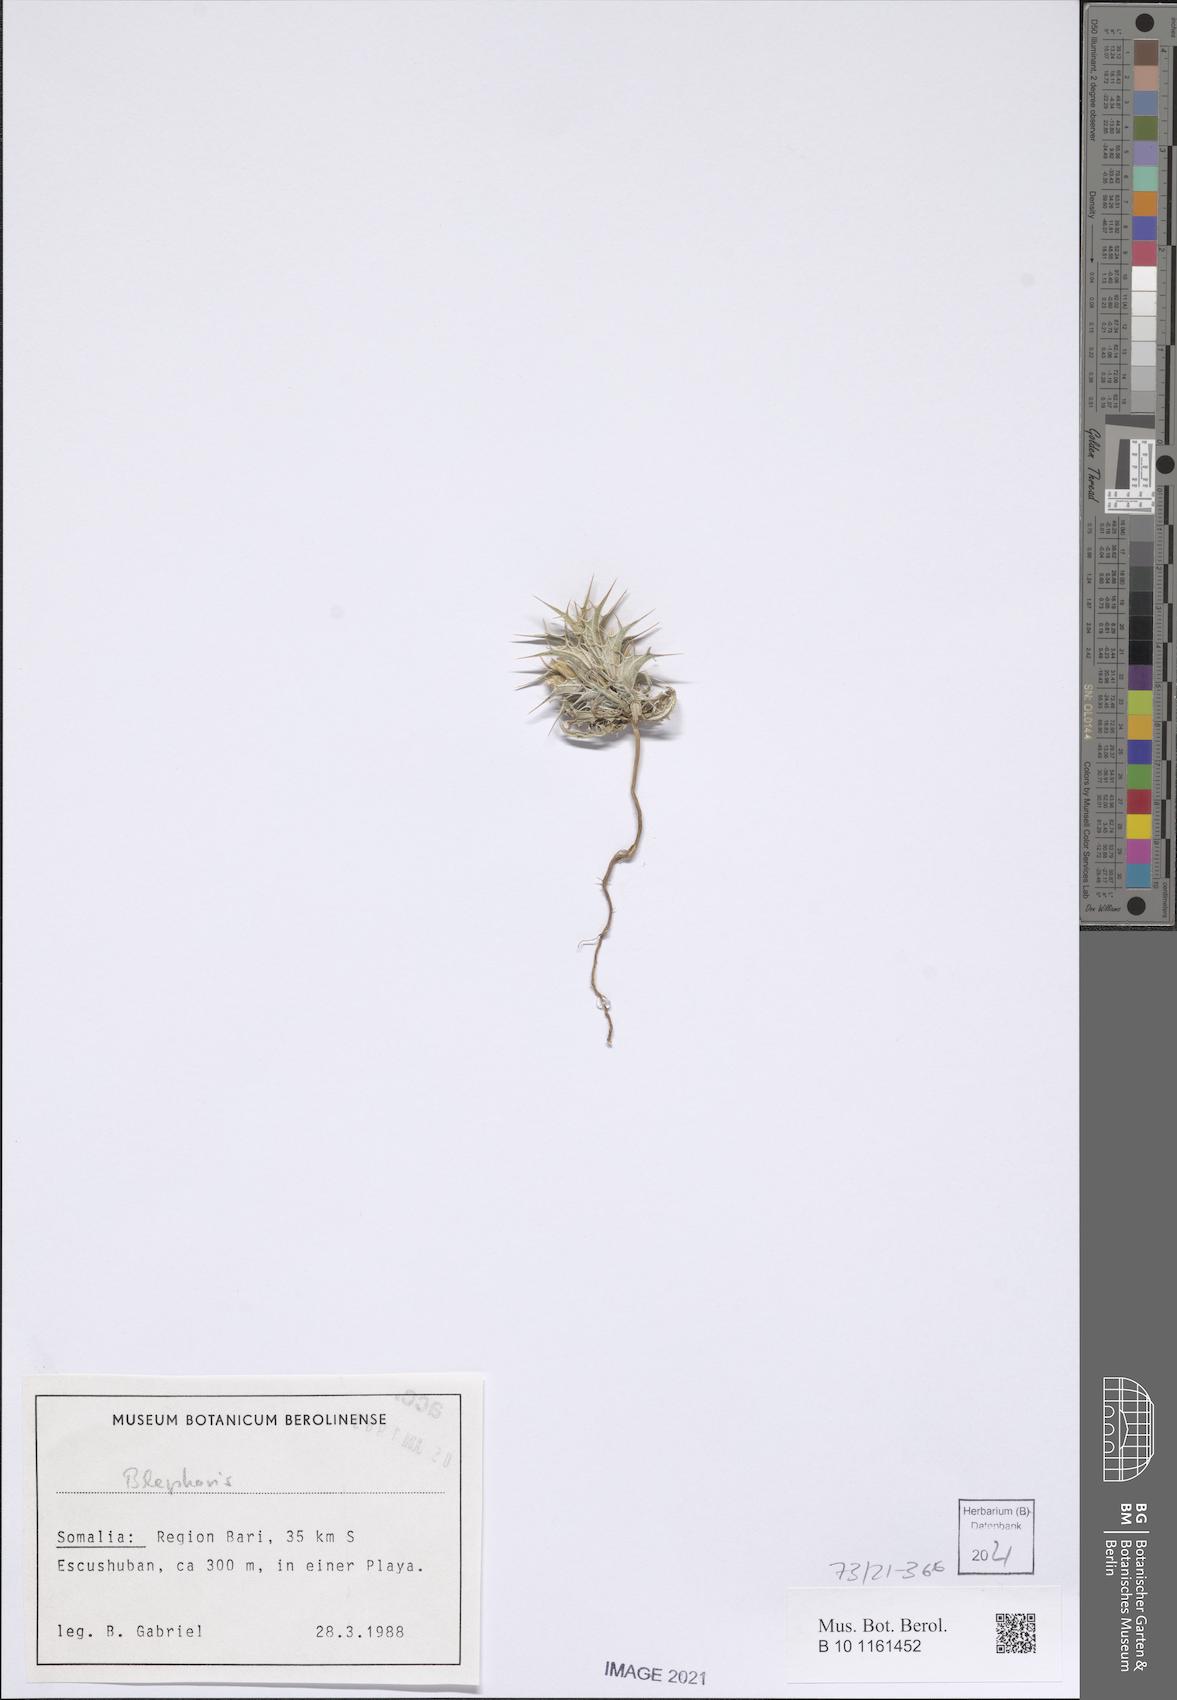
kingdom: Plantae
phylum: Tracheophyta
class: Magnoliopsida
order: Lamiales
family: Acanthaceae
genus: Blepharis
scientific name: Blepharis edulis
